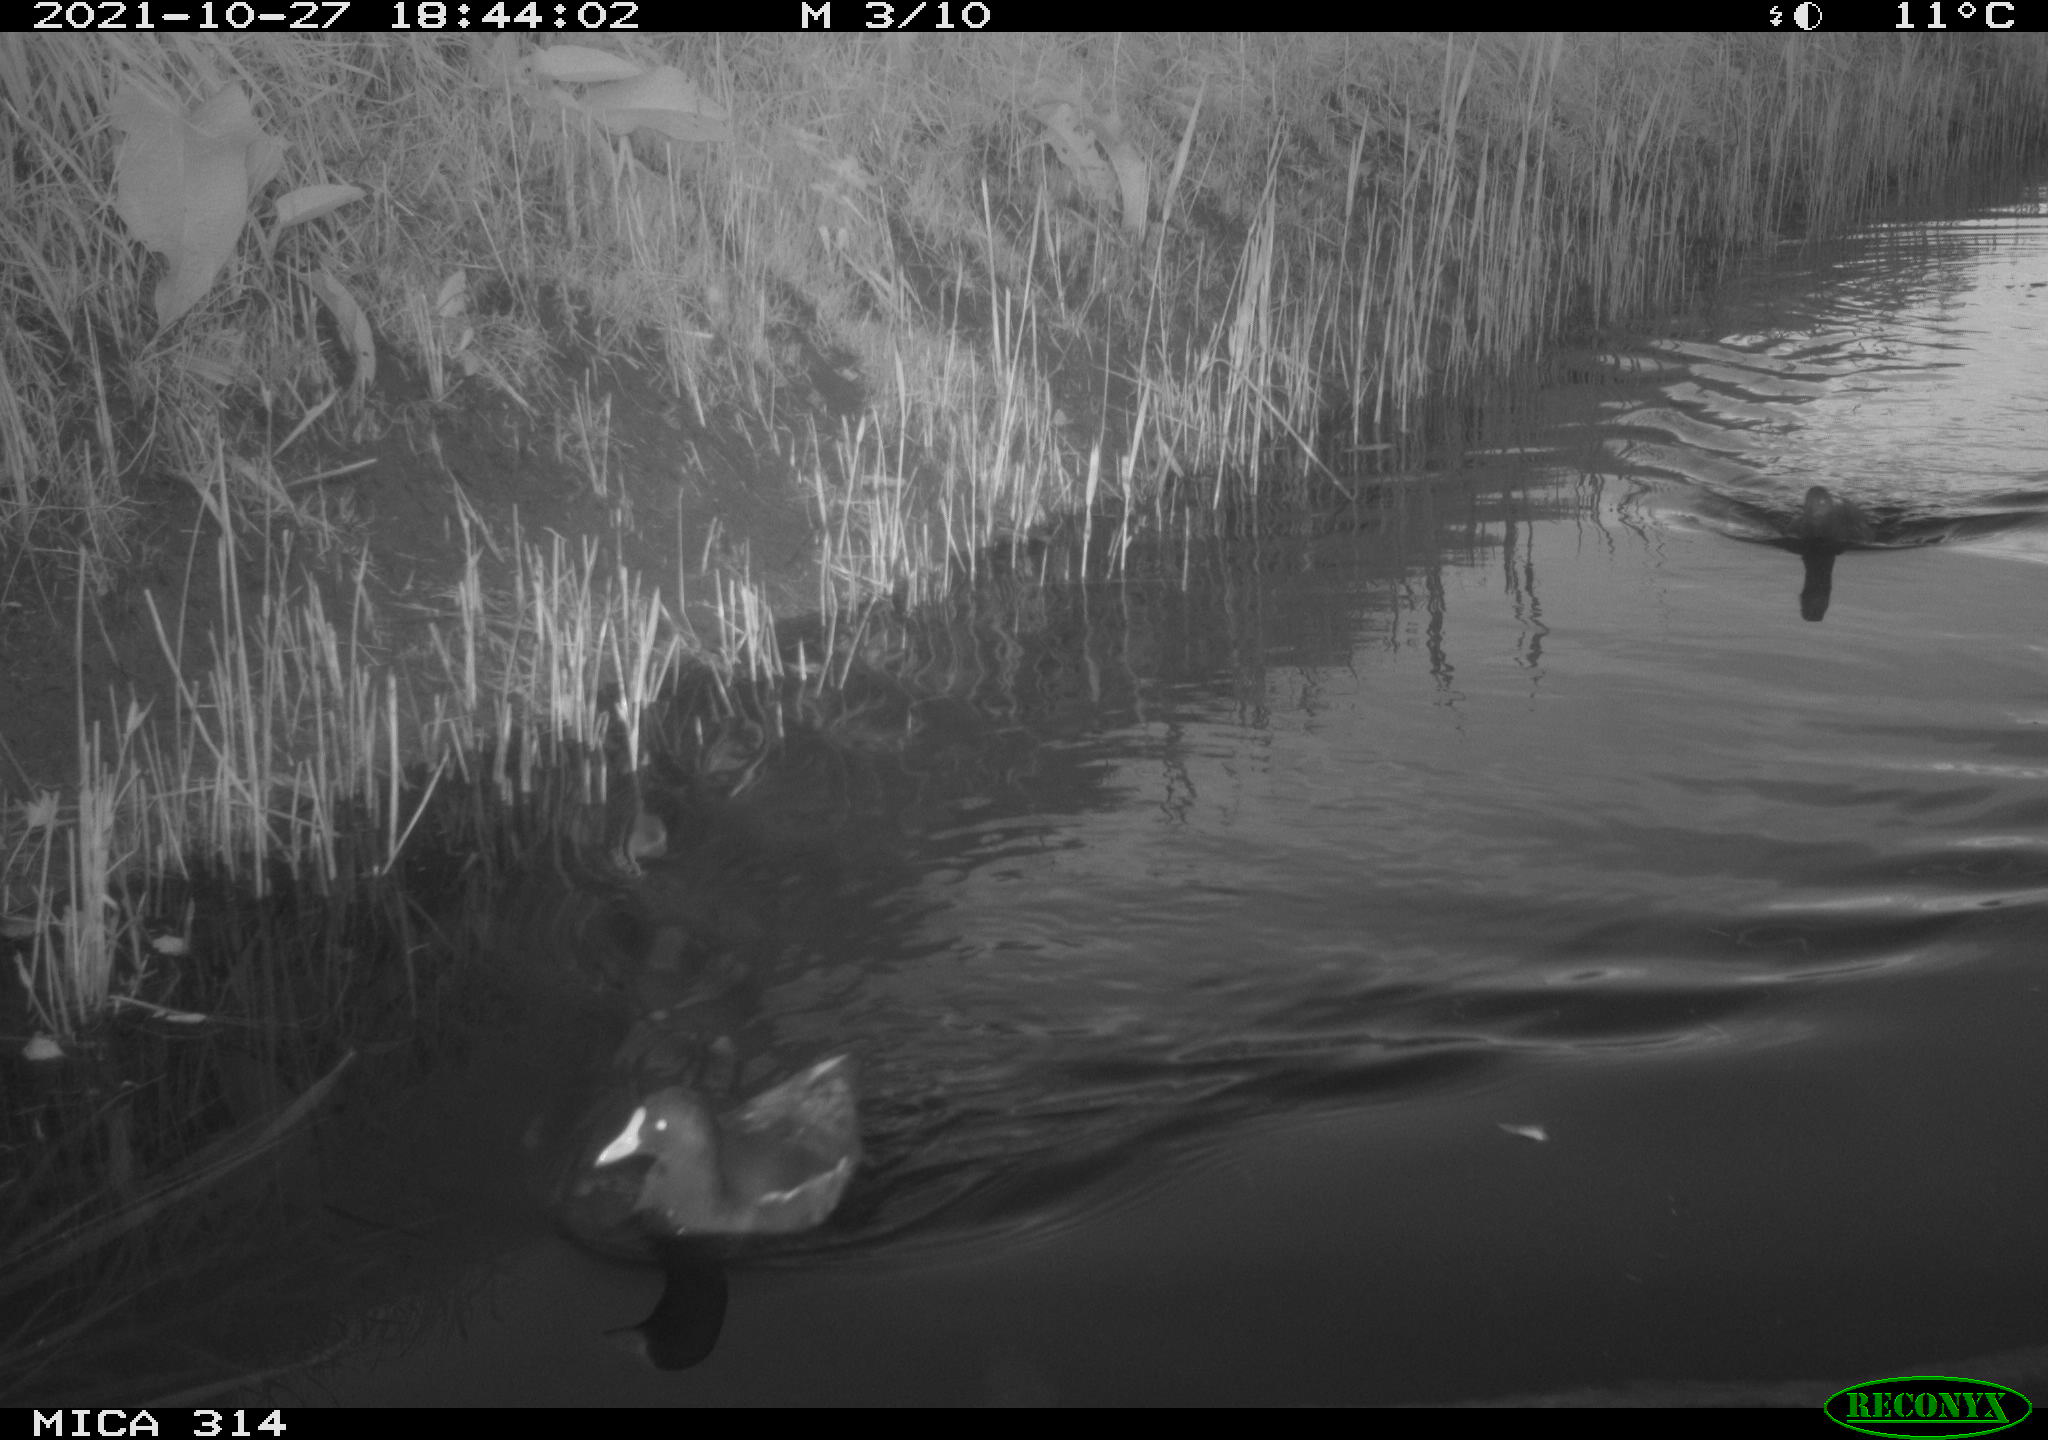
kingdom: Animalia
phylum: Chordata
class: Aves
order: Gruiformes
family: Rallidae
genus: Gallinula
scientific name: Gallinula chloropus
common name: Common moorhen
